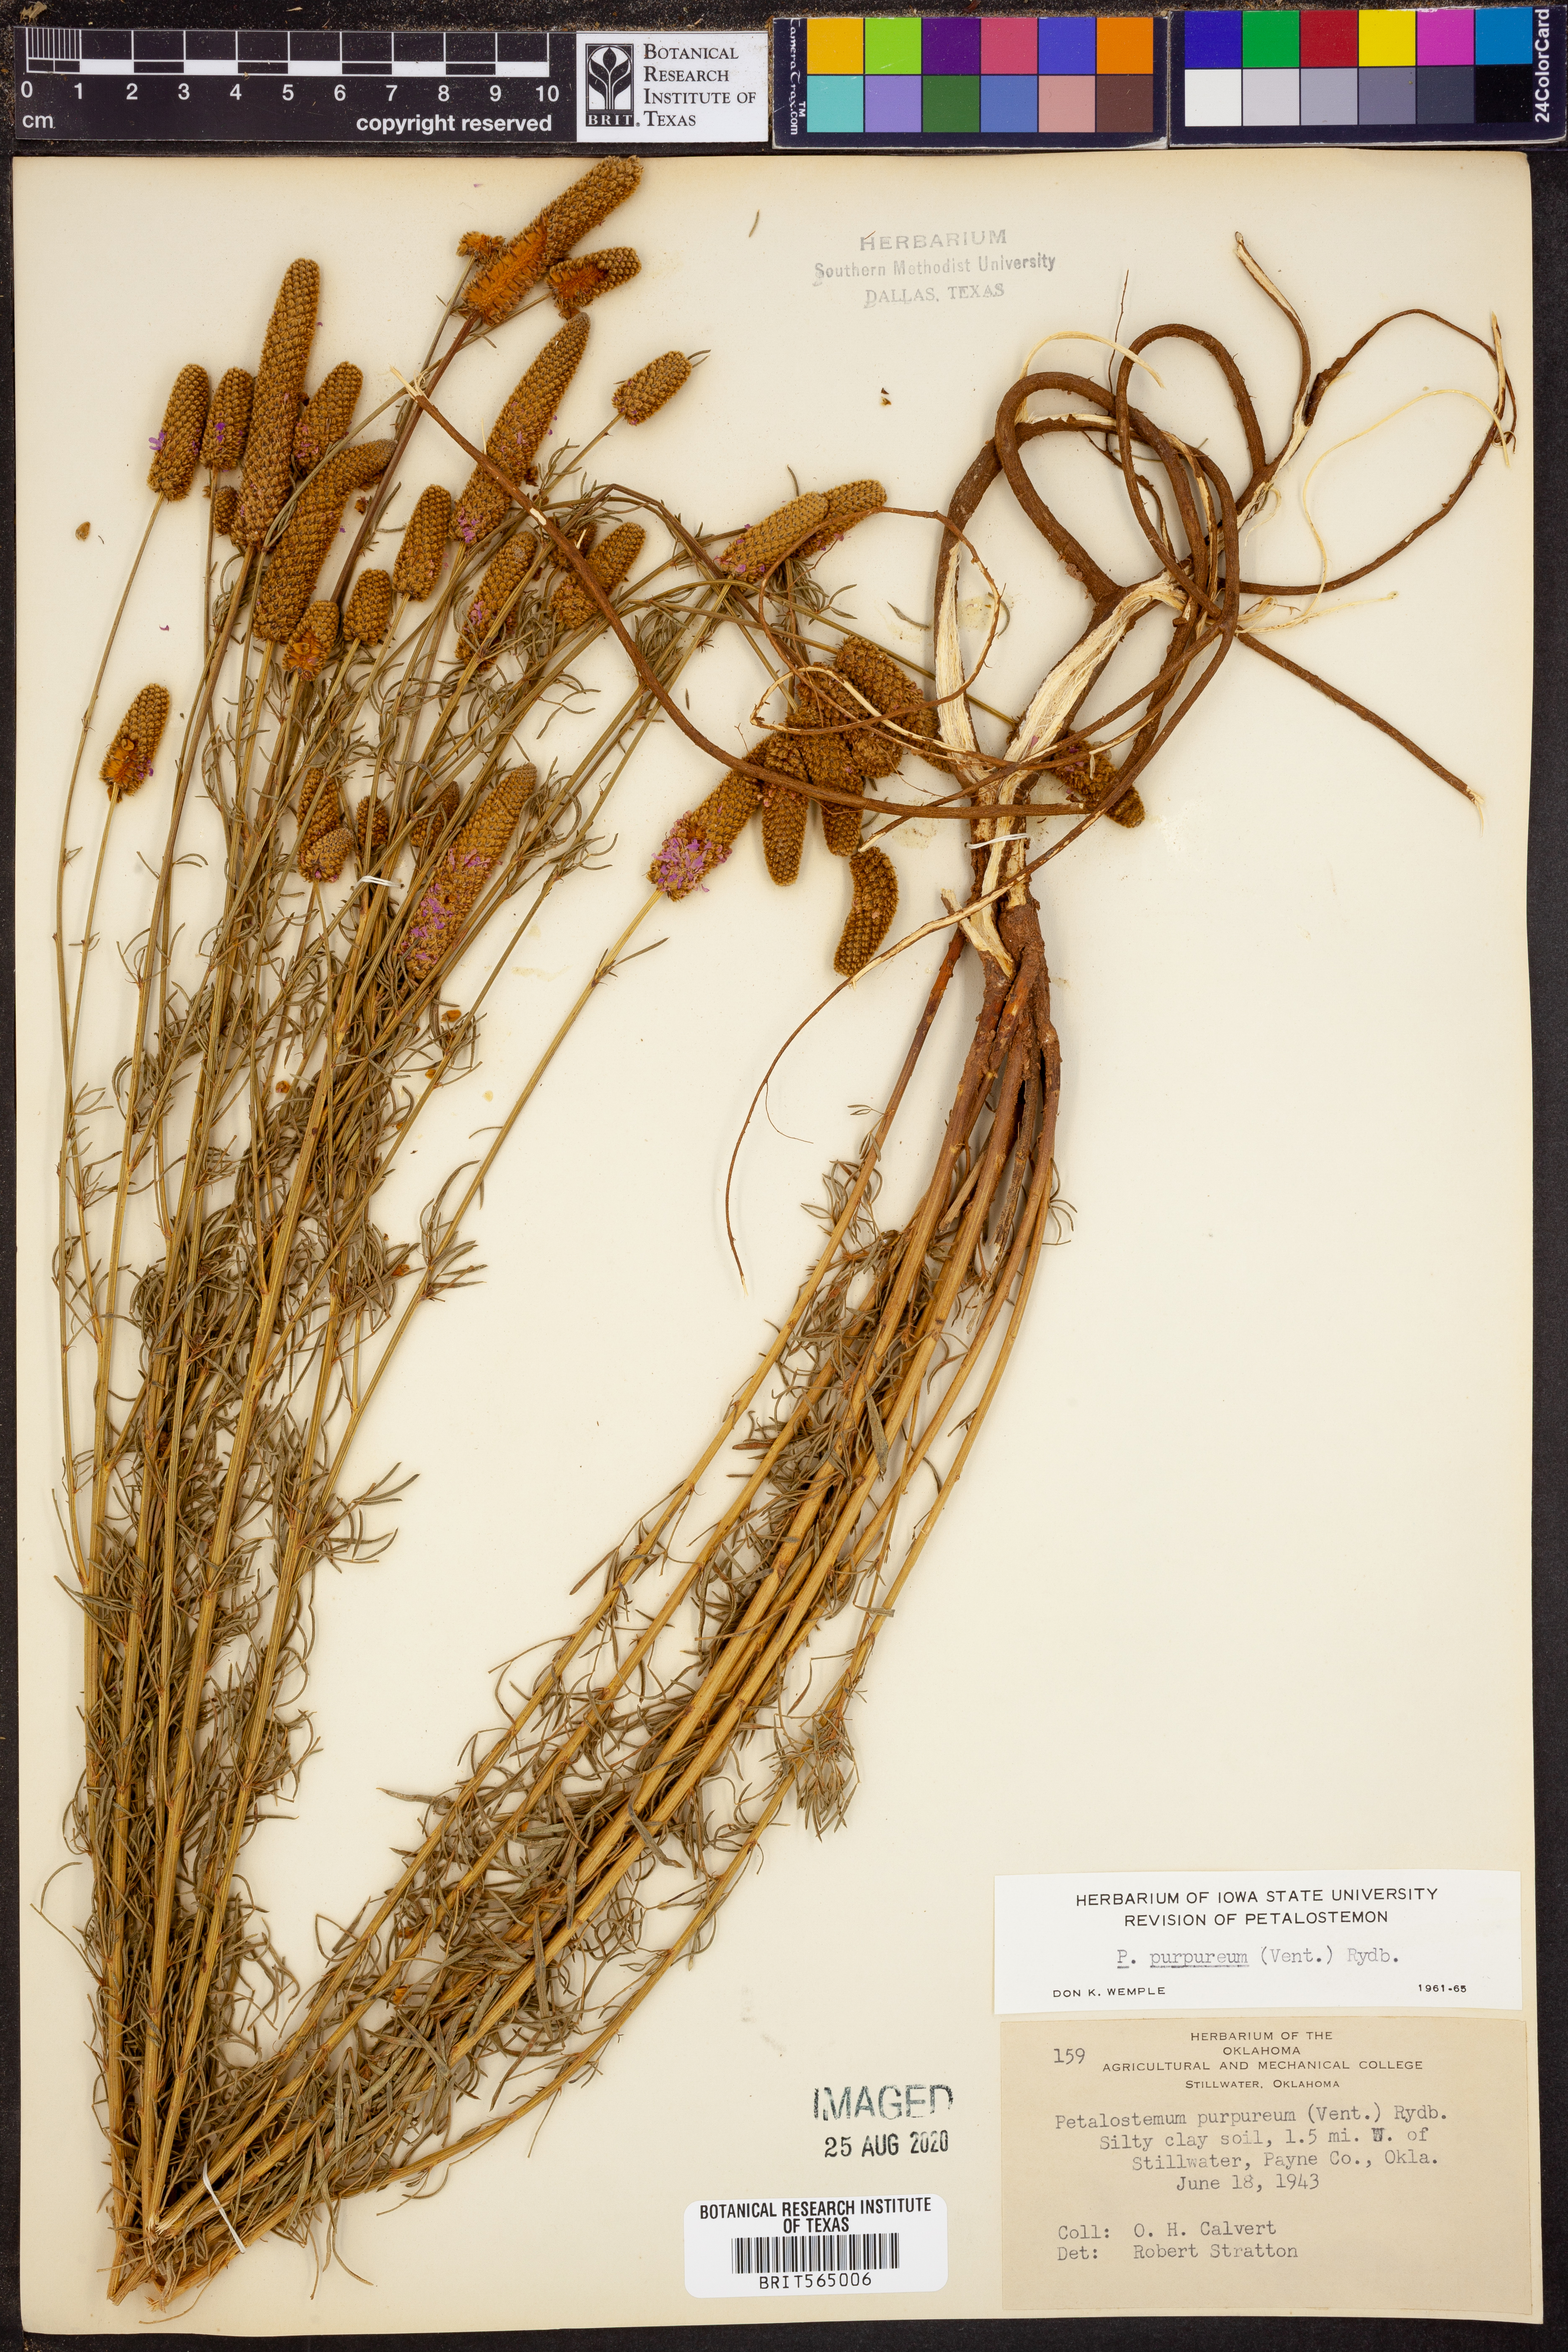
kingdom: Plantae
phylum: Tracheophyta
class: Magnoliopsida
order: Fabales
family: Fabaceae
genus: Dalea
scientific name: Dalea purpurea
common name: Purple prairie-clover
